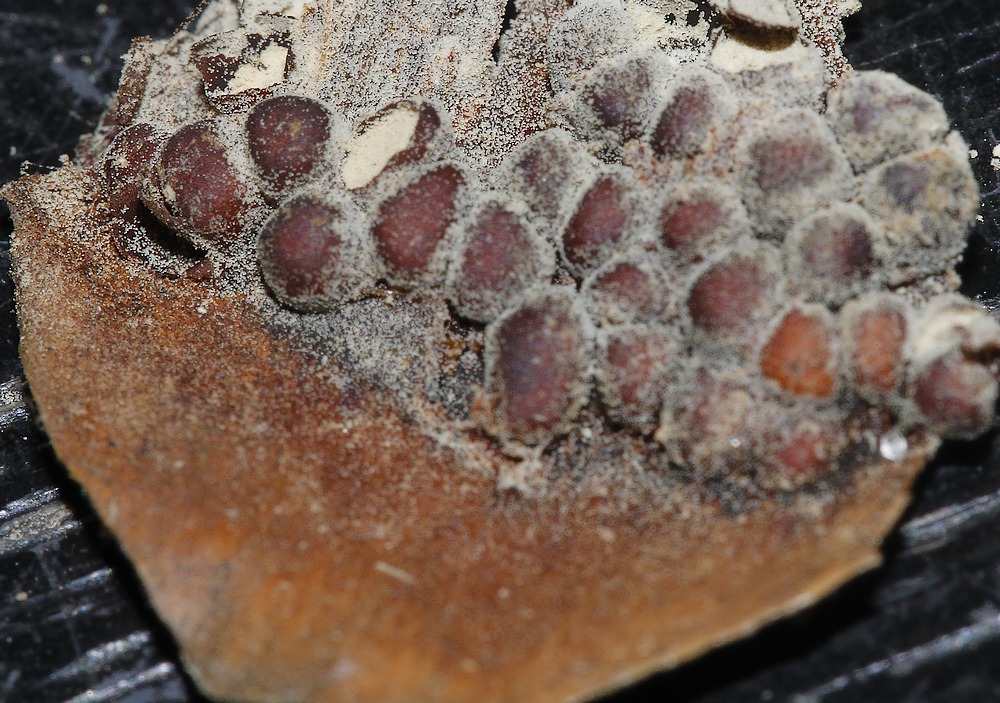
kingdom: Fungi
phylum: Basidiomycota
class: Pucciniomycetes
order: Pucciniales
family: Pucciniastraceae
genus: Thekopsora
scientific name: Thekopsora areolata
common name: grankogle-nålerust
